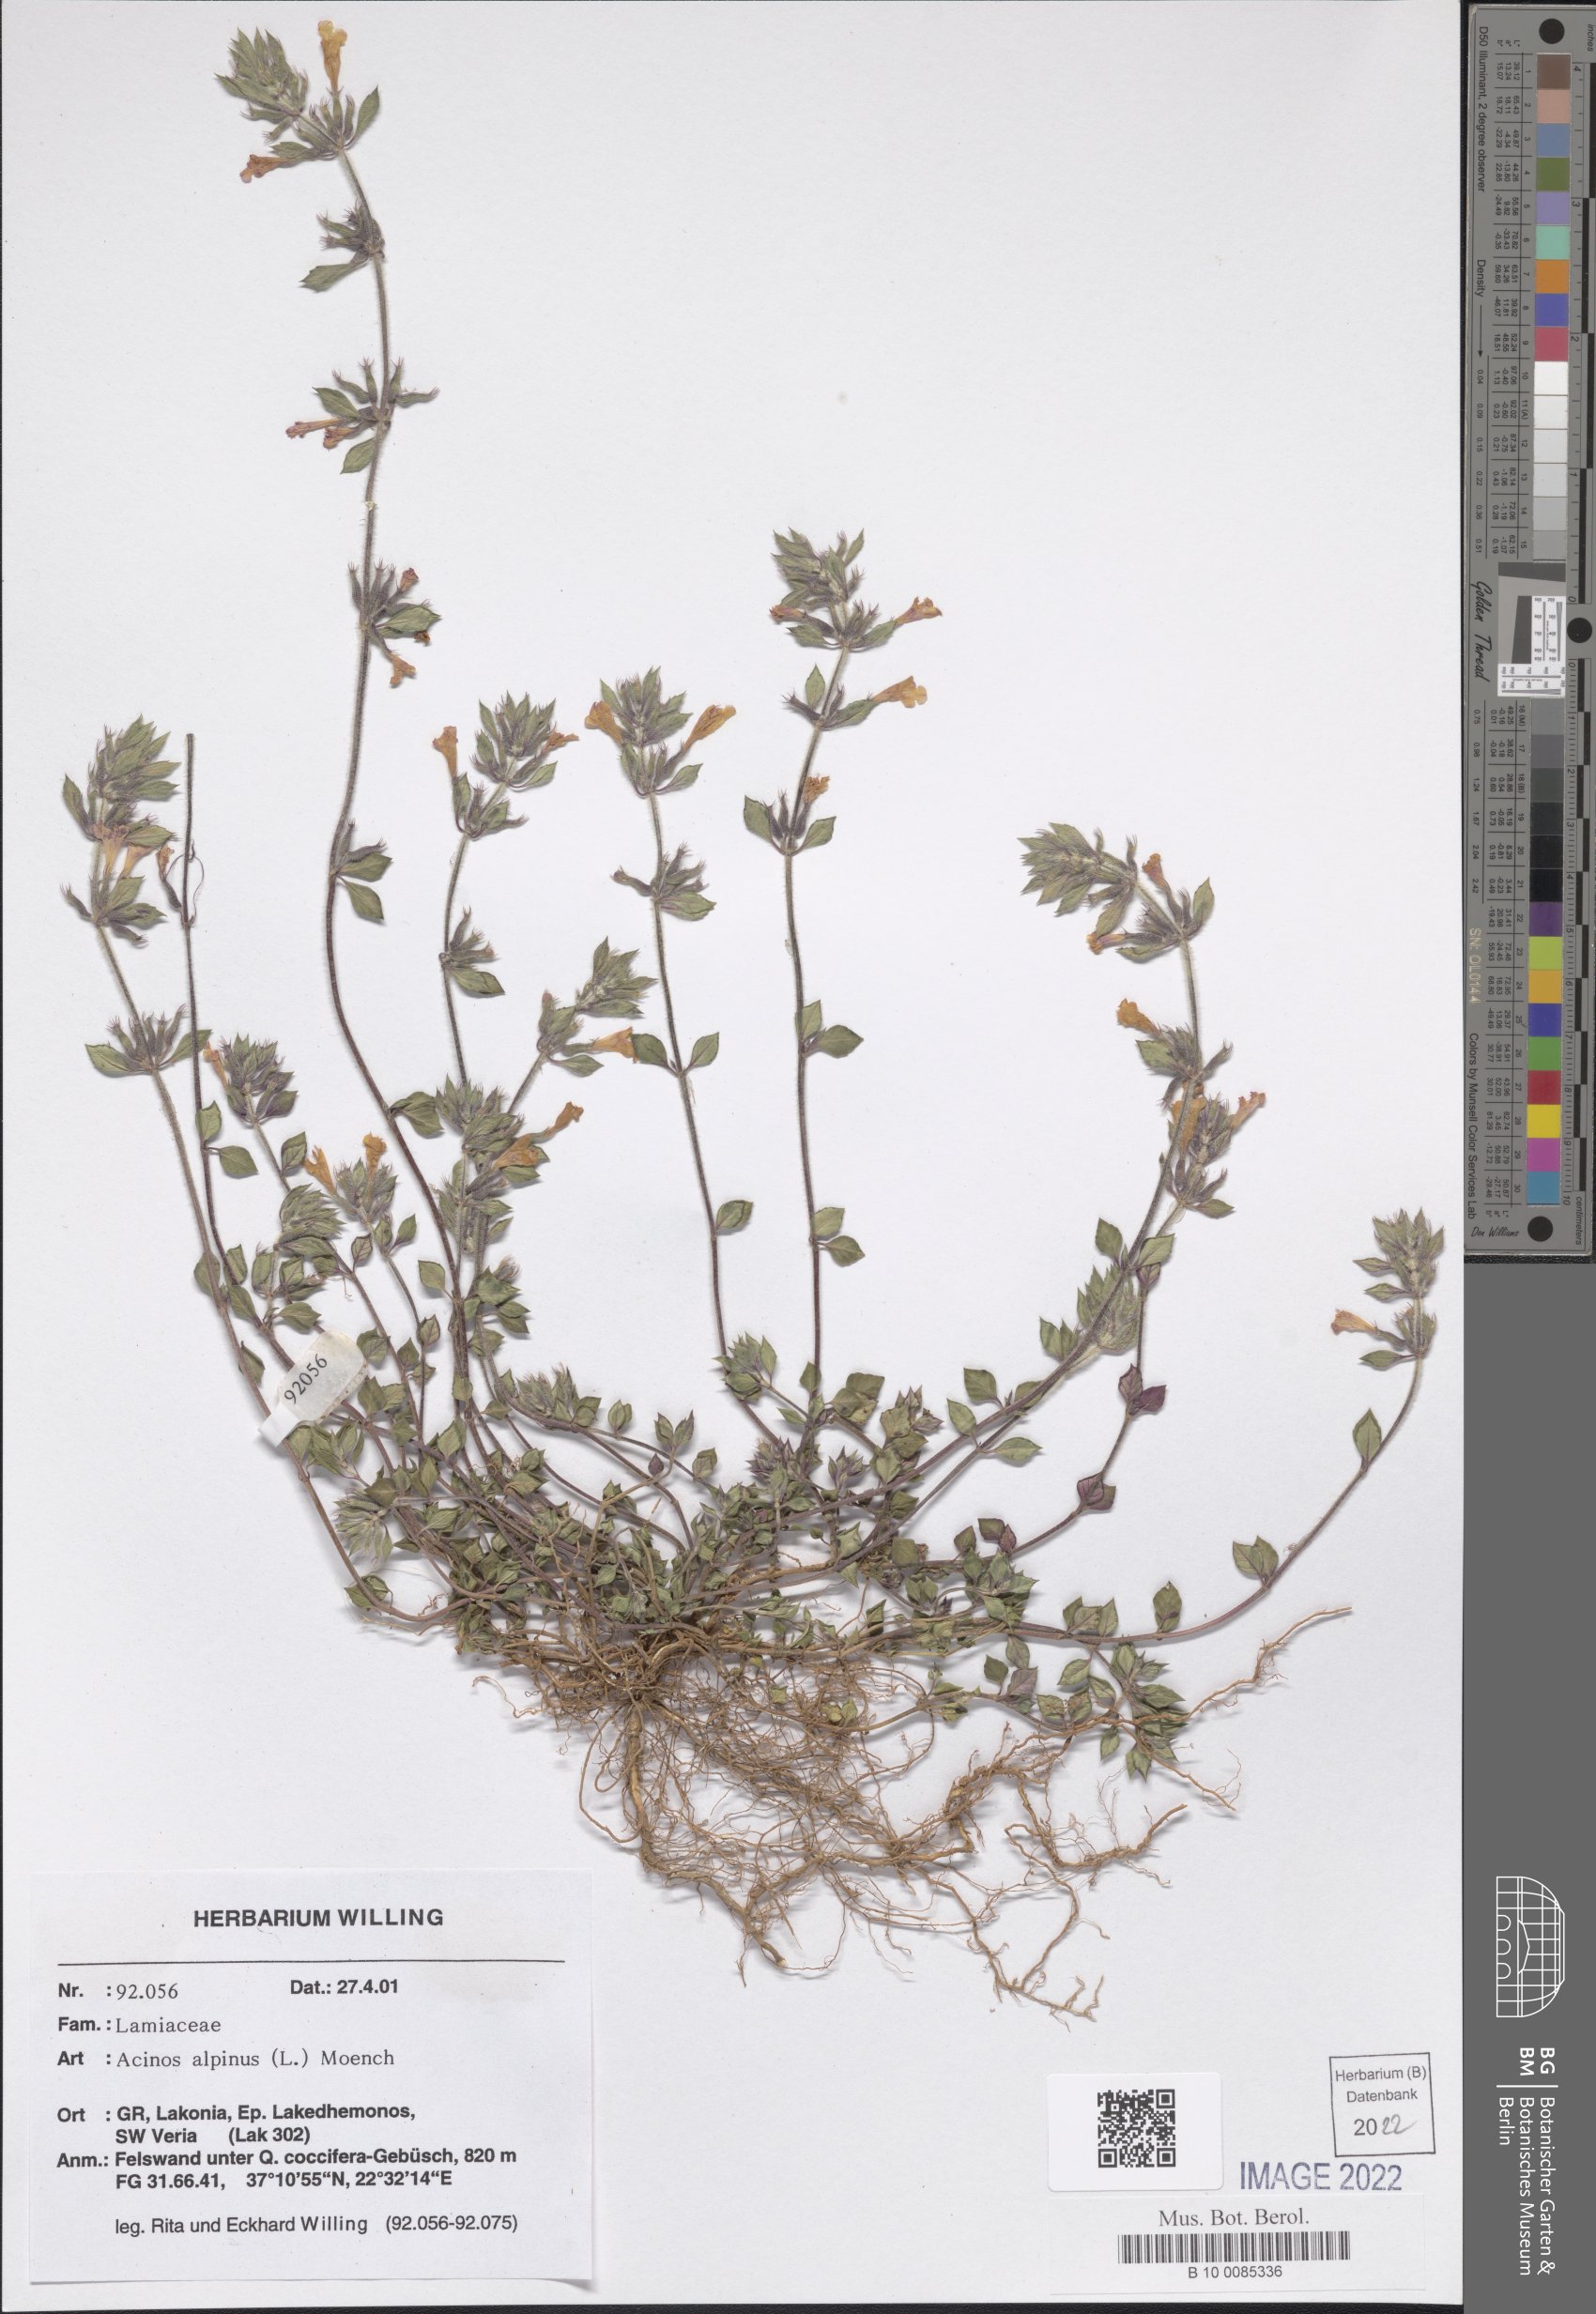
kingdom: Plantae
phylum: Tracheophyta
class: Magnoliopsida
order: Lamiales
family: Lamiaceae
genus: Clinopodium
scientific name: Clinopodium alpinum
